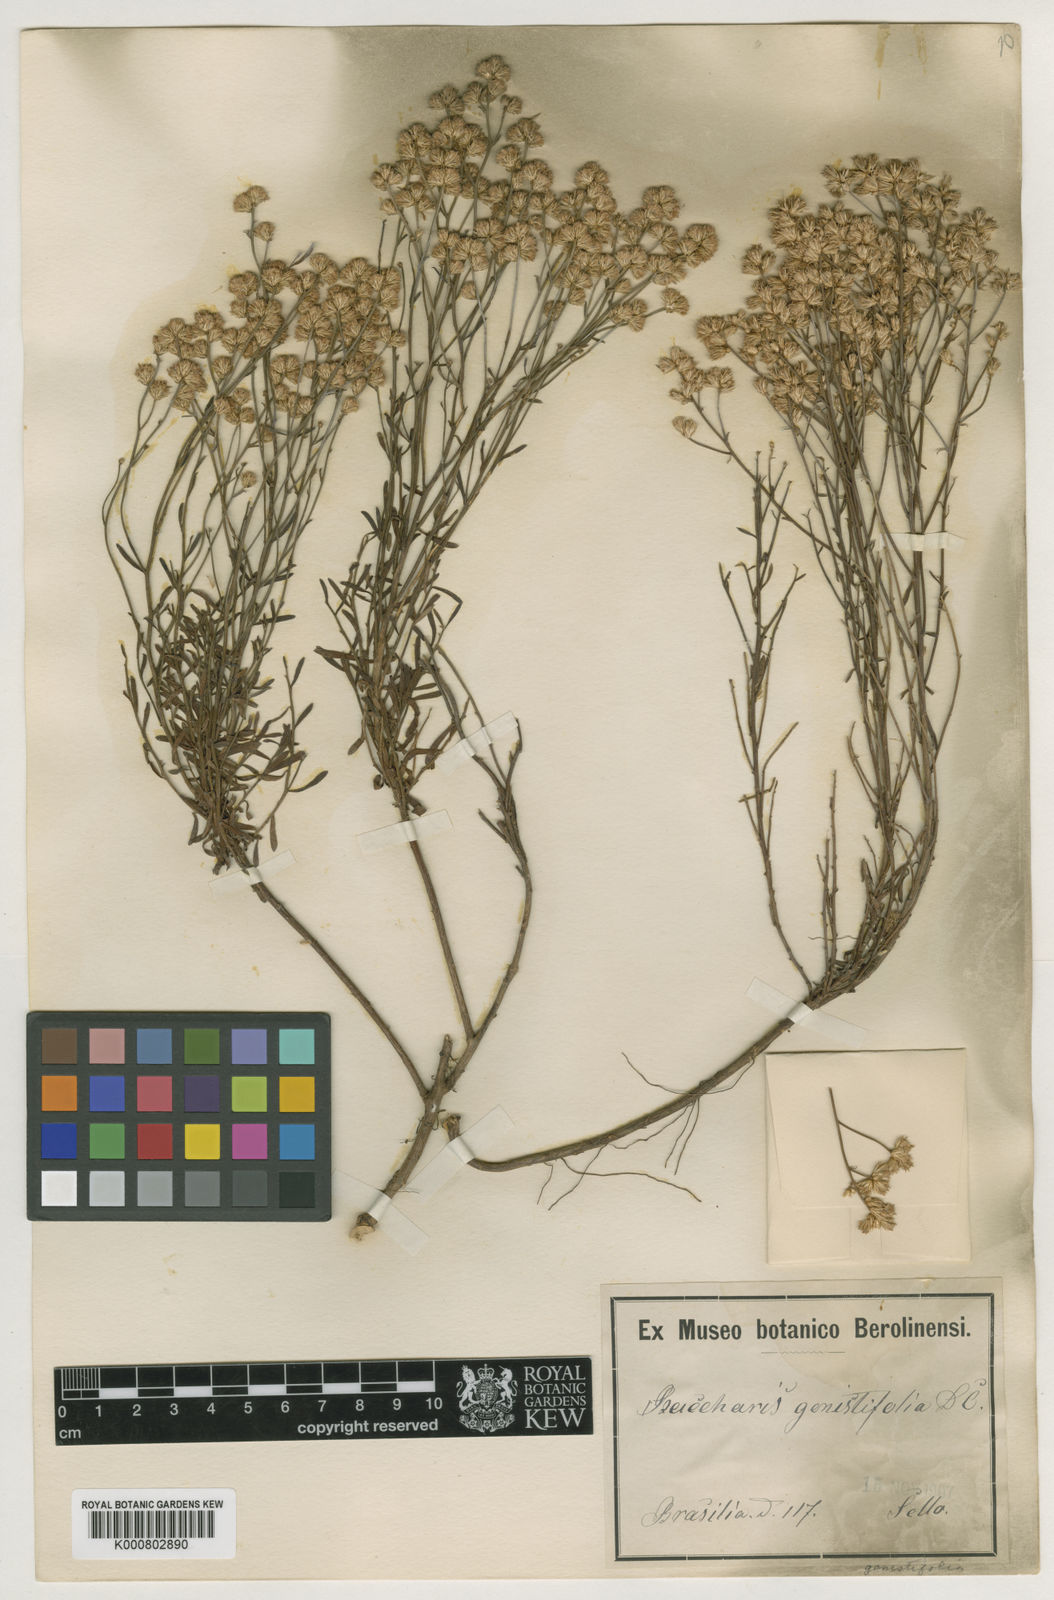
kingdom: Plantae
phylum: Tracheophyta
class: Magnoliopsida
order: Asterales
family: Asteraceae
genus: Baccharis
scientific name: Baccharis genistifolia
